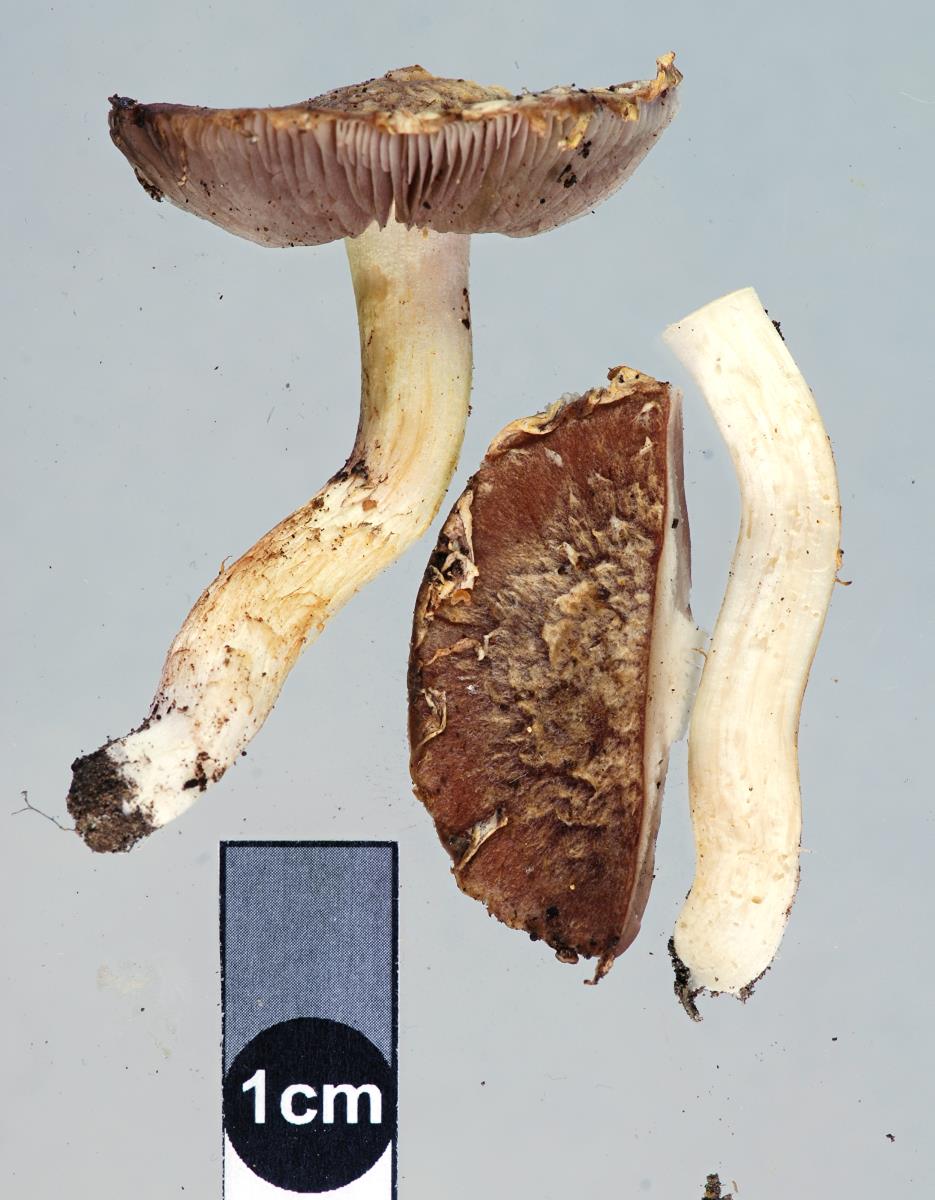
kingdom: Fungi
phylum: Basidiomycota
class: Agaricomycetes
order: Agaricales
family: Strophariaceae
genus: Stropharia
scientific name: Stropharia
